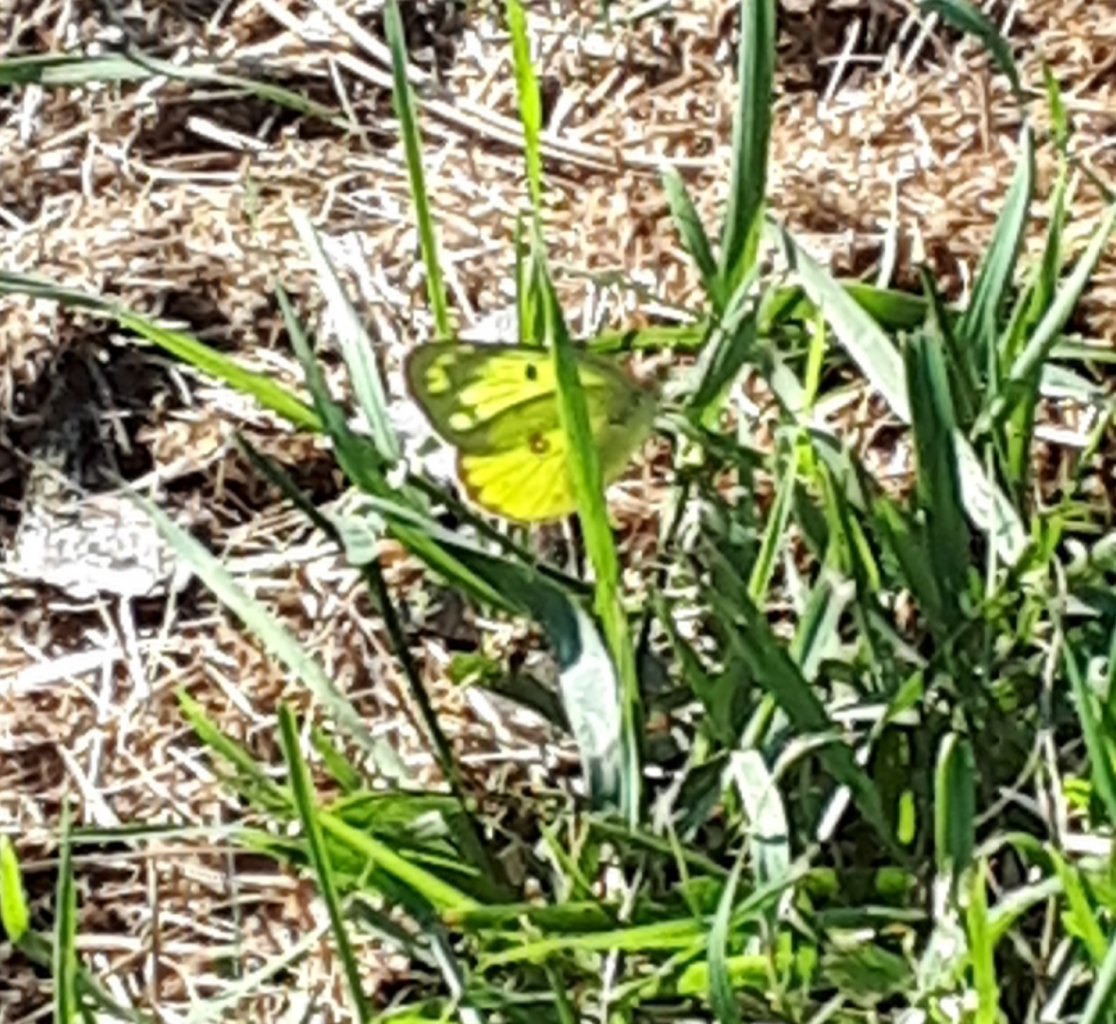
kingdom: Animalia
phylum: Arthropoda
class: Insecta
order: Lepidoptera
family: Pieridae
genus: Colias
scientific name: Colias philodice
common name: Clouded Sulphur
